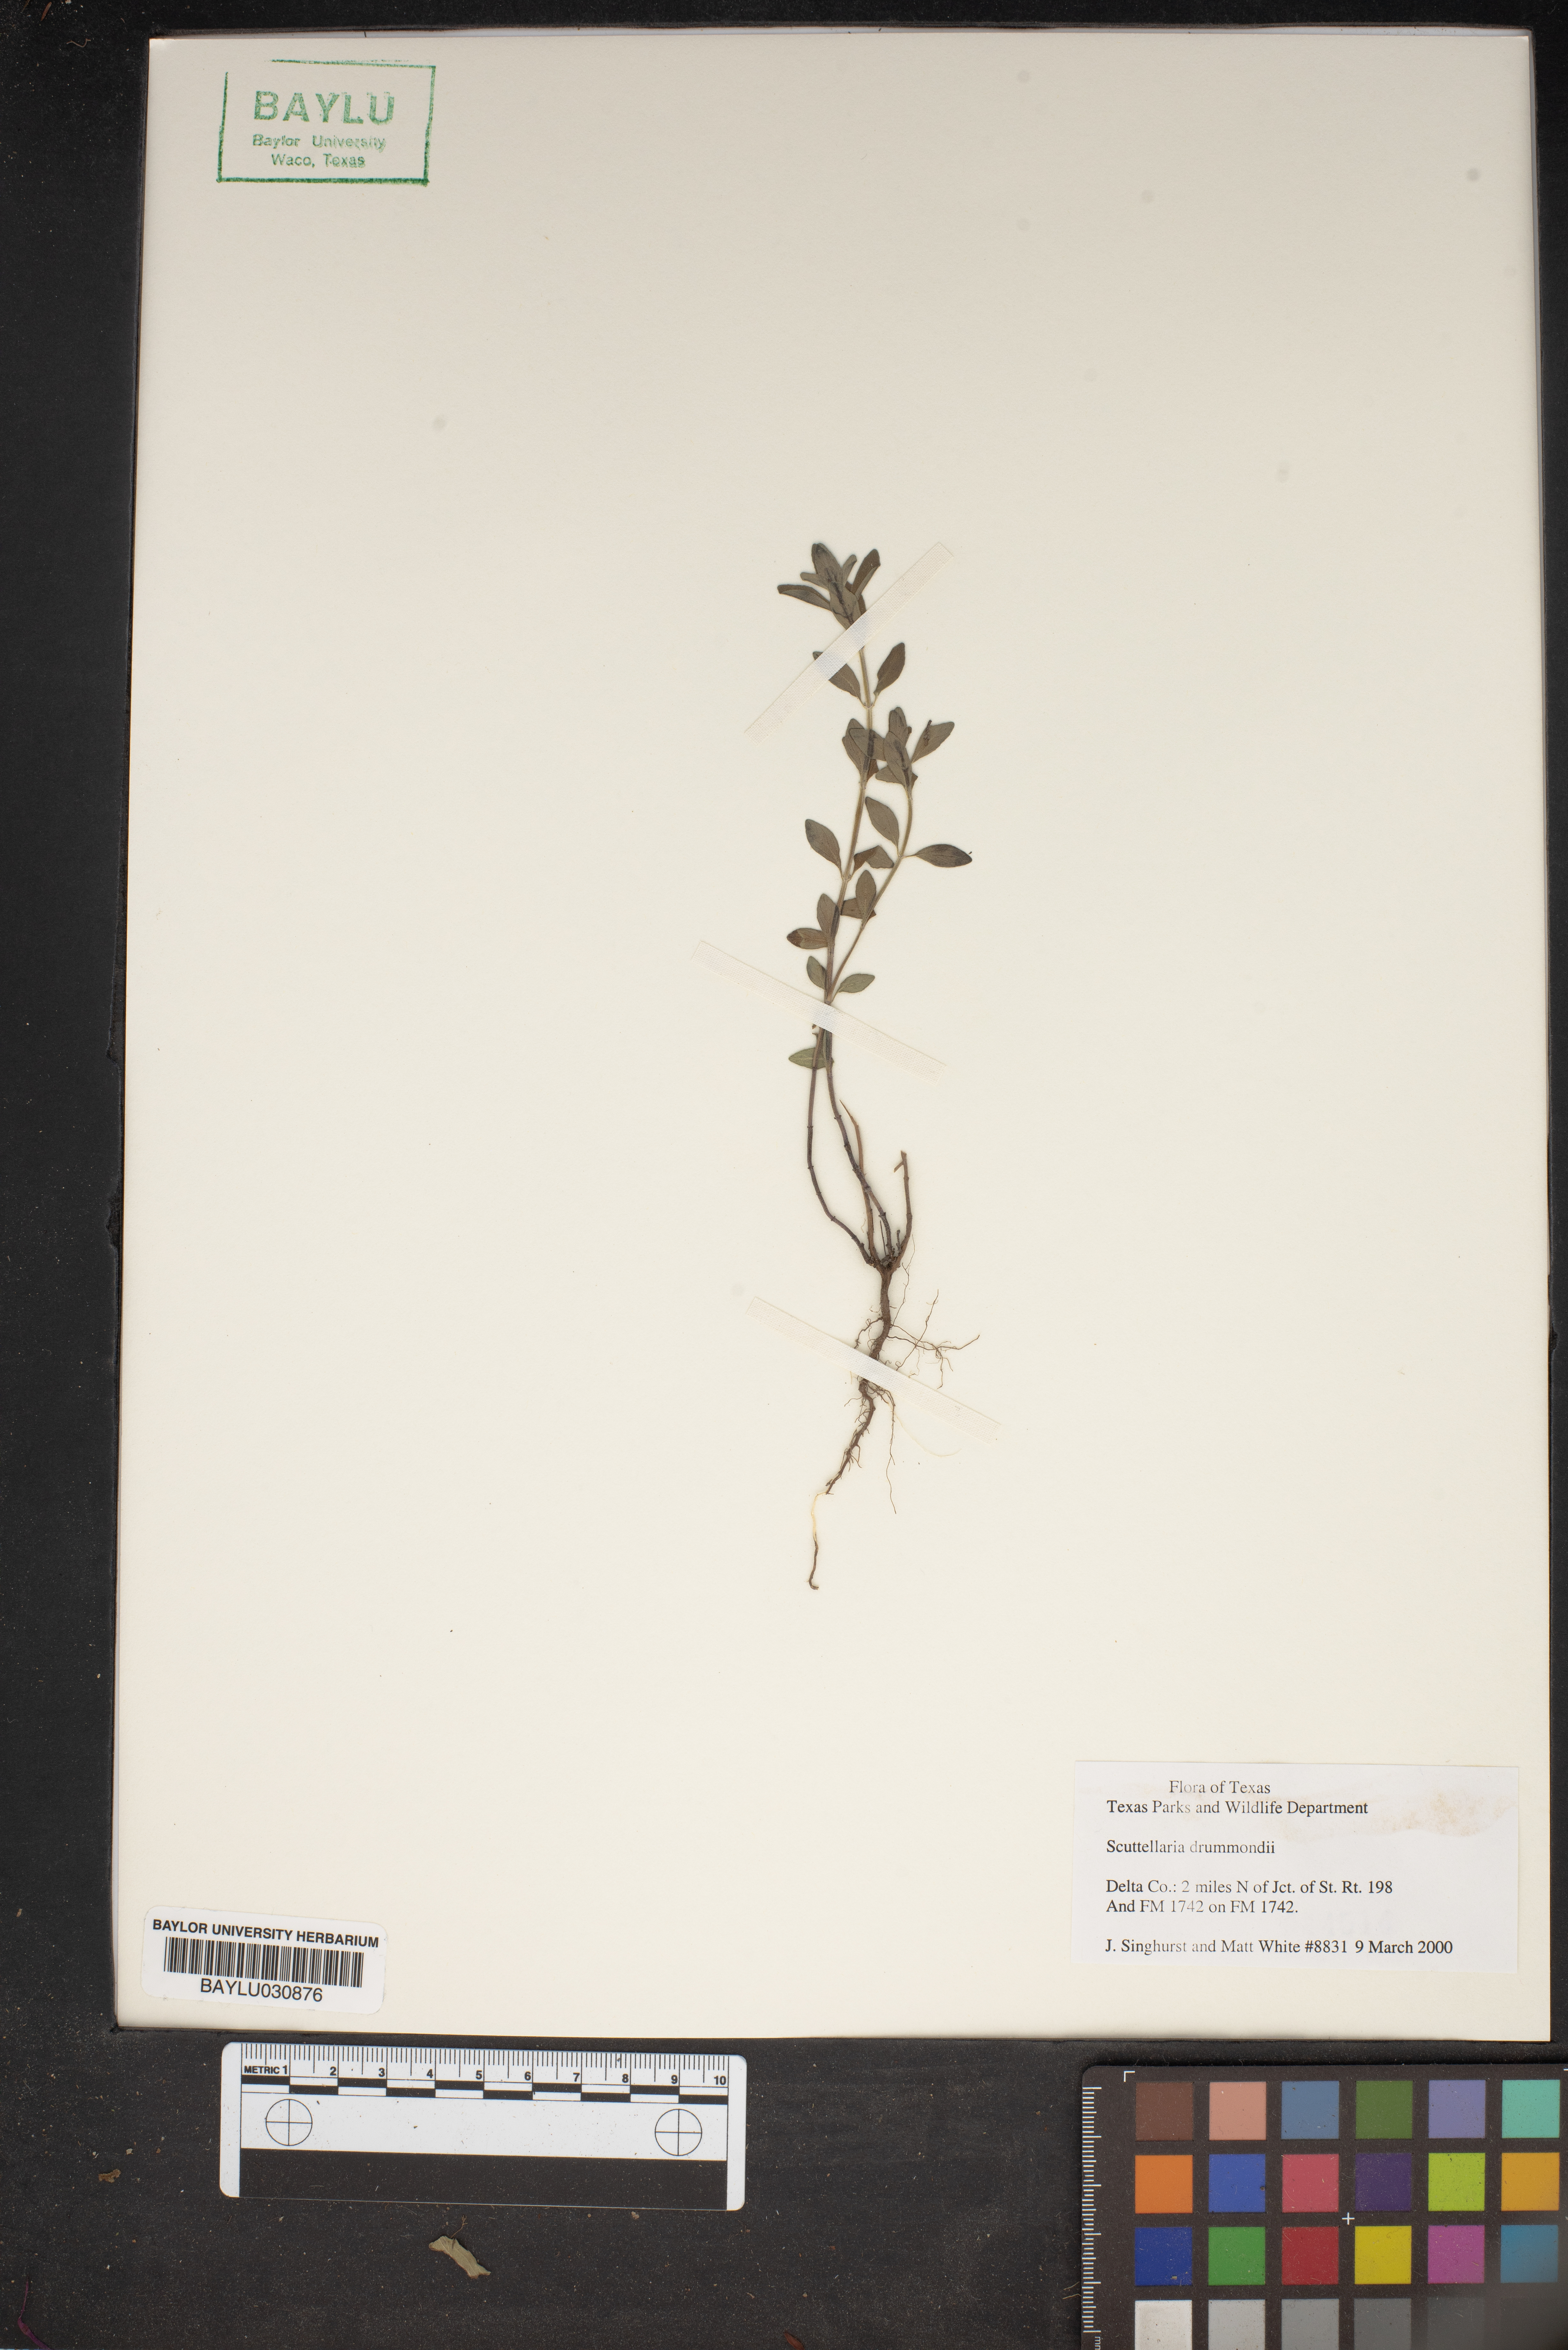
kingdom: Plantae
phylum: Tracheophyta
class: Magnoliopsida
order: Lamiales
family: Lamiaceae
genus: Scutellaria
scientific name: Scutellaria drummondii
